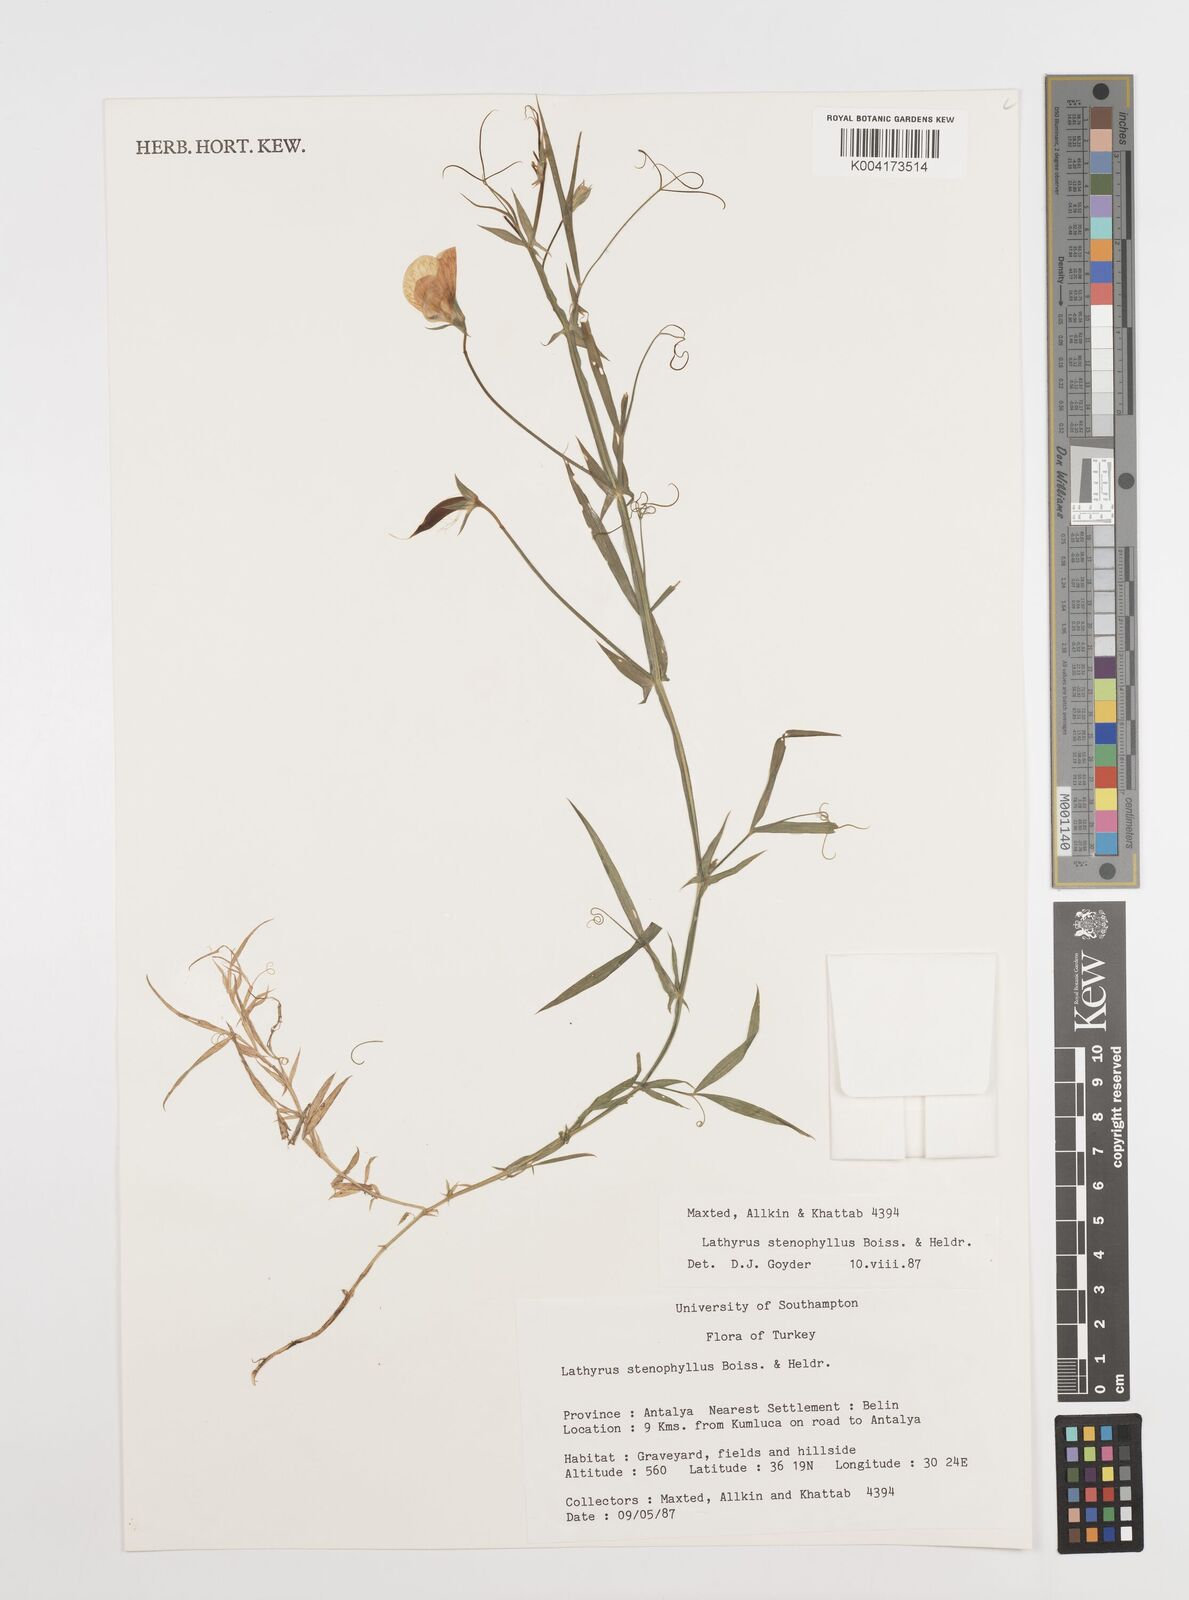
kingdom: Plantae
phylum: Tracheophyta
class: Magnoliopsida
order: Fabales
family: Fabaceae
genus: Lathyrus
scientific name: Lathyrus stenophyllus
